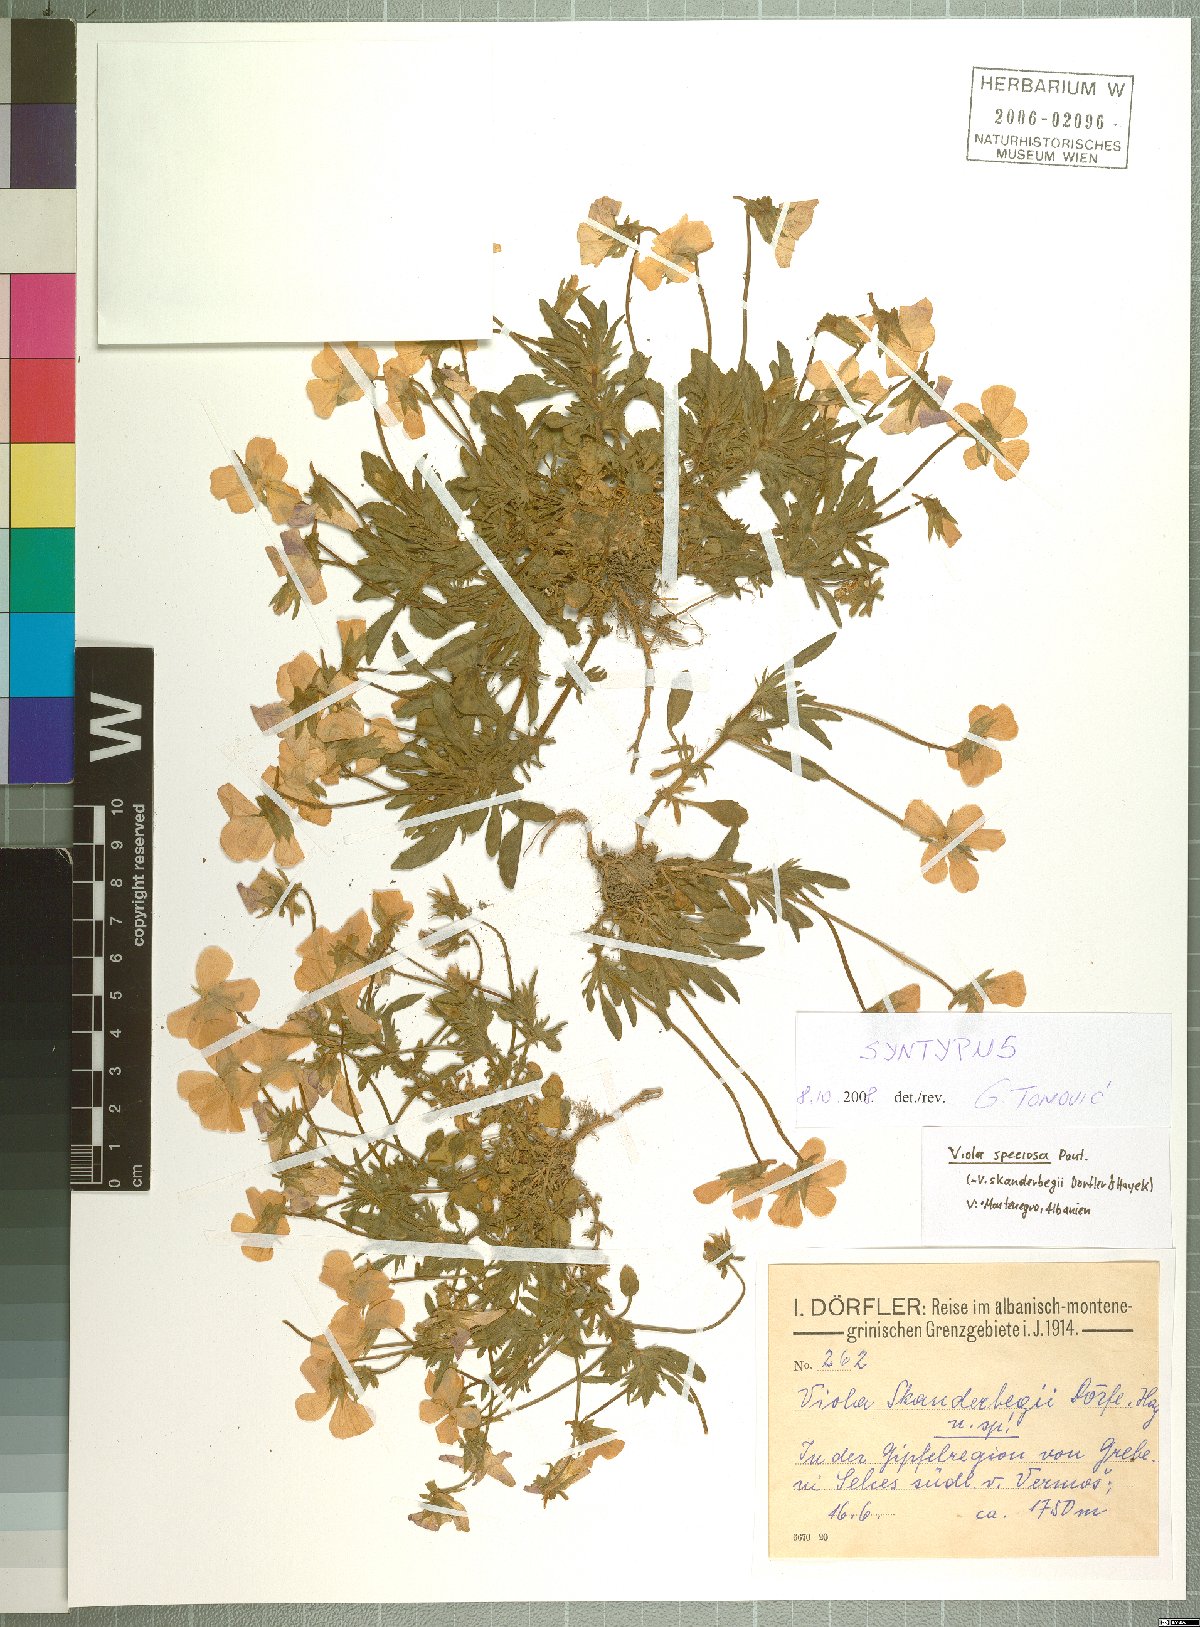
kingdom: Plantae
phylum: Tracheophyta
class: Magnoliopsida
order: Malpighiales
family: Violaceae
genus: Viola
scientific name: Viola skanderbegii
